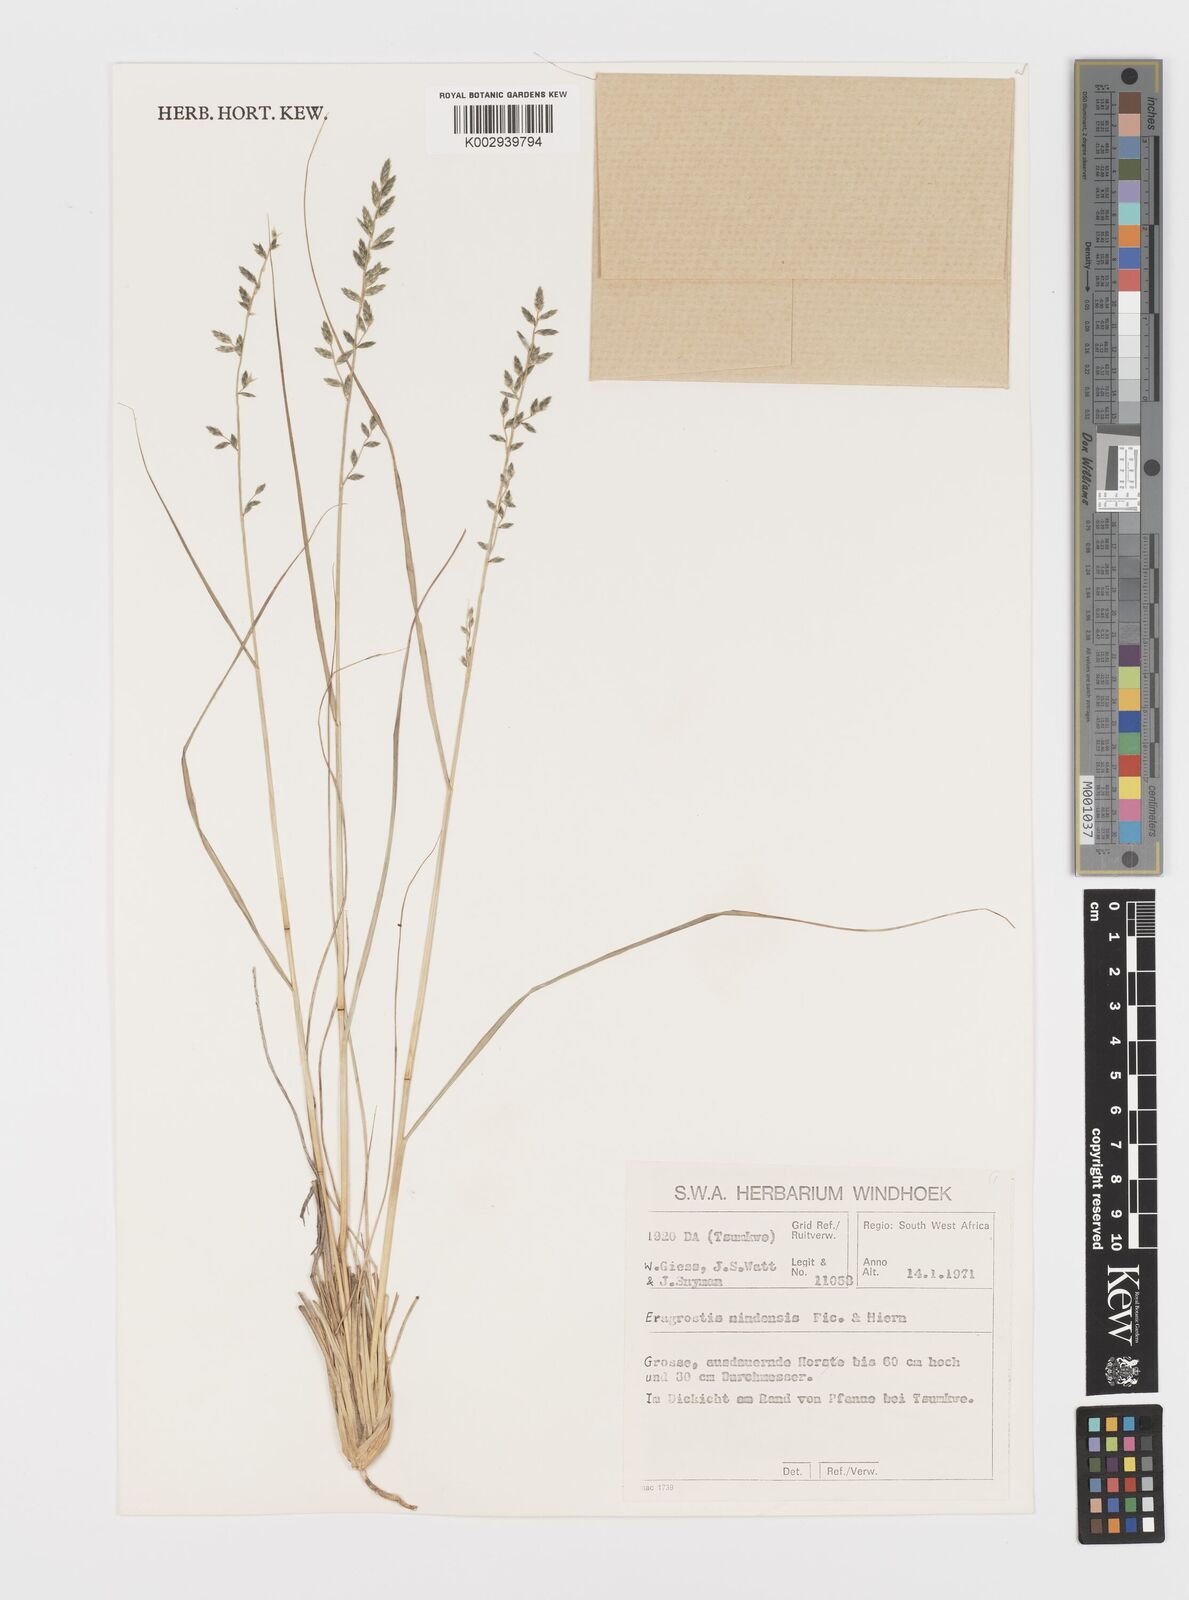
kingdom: Plantae
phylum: Tracheophyta
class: Liliopsida
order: Poales
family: Poaceae
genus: Eragrostis
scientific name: Eragrostis nindensis
